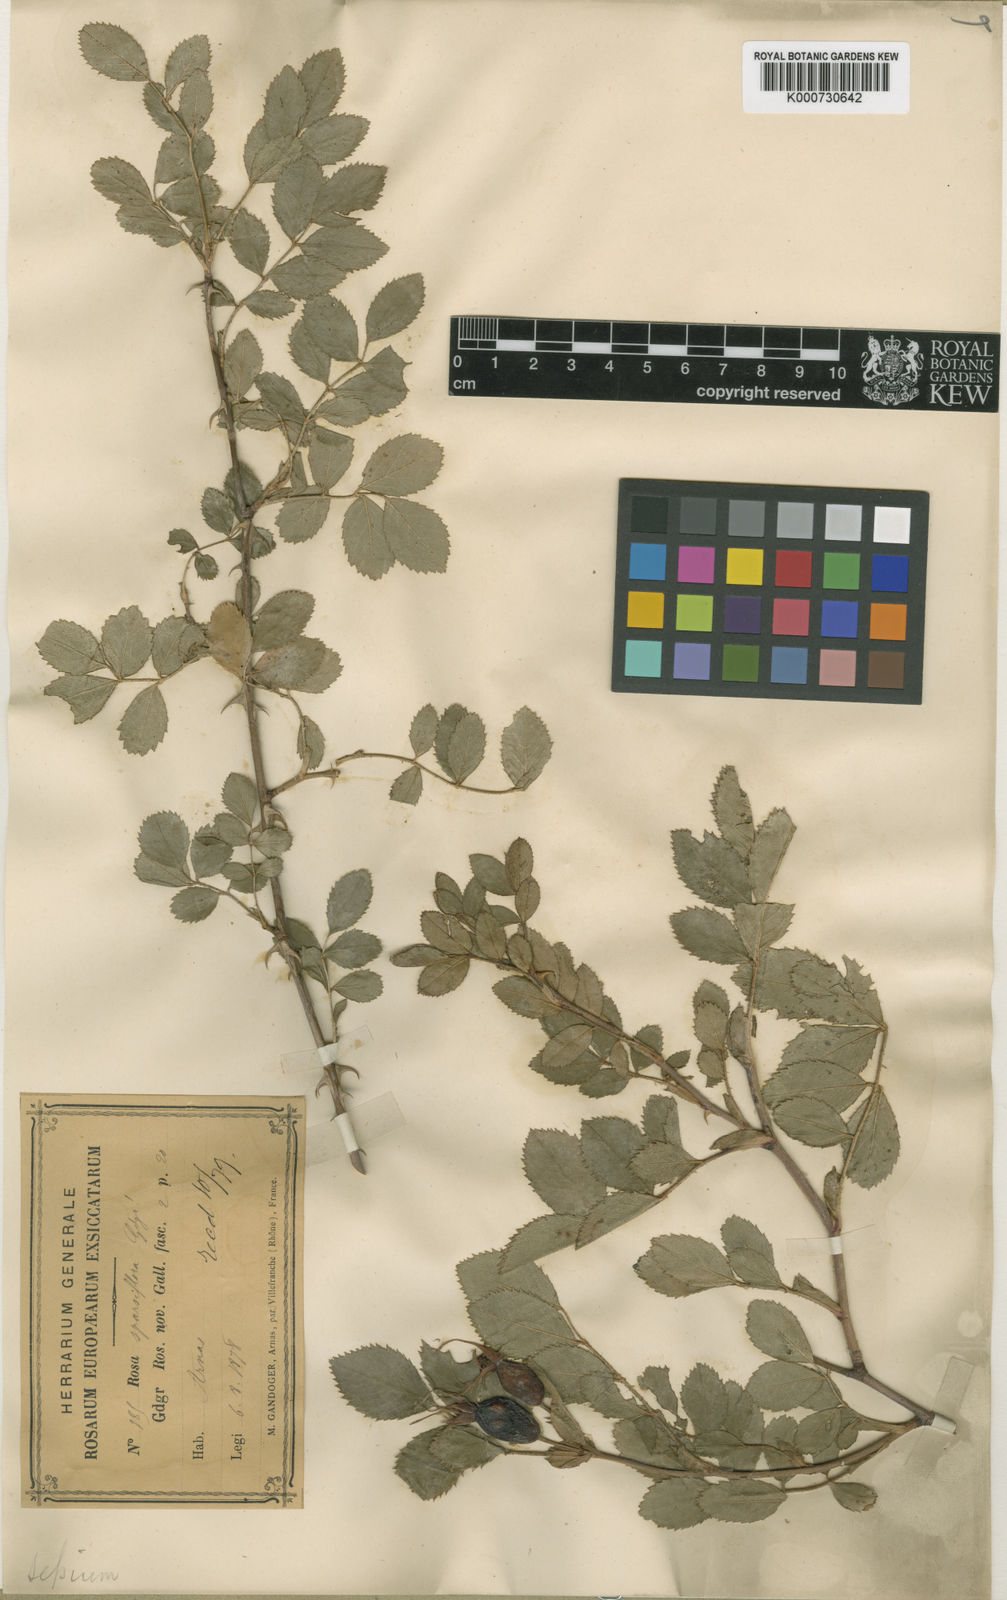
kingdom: Plantae
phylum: Tracheophyta
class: Magnoliopsida
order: Rosales
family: Rosaceae
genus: Rosa
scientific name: Rosa agrestis
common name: Fieldbriar
